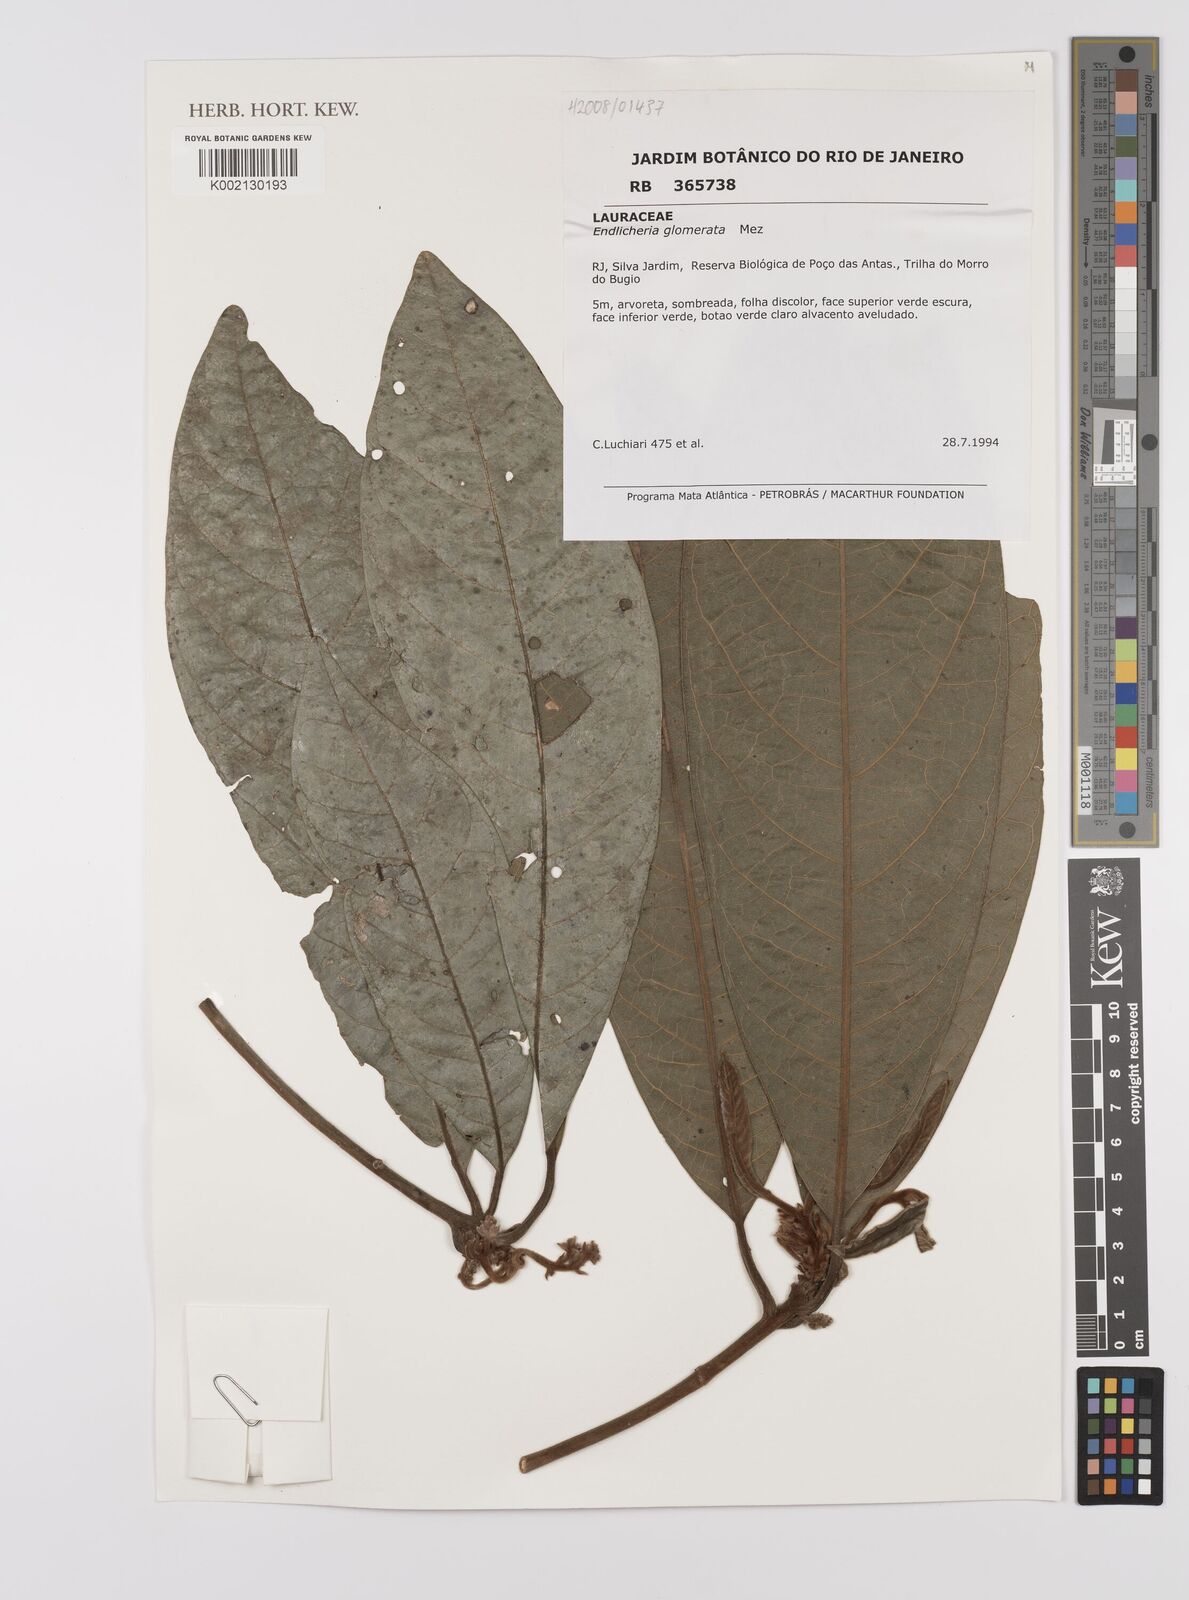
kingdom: Plantae
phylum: Tracheophyta
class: Magnoliopsida
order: Laurales
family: Lauraceae
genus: Endlicheria
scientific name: Endlicheria glomerata
